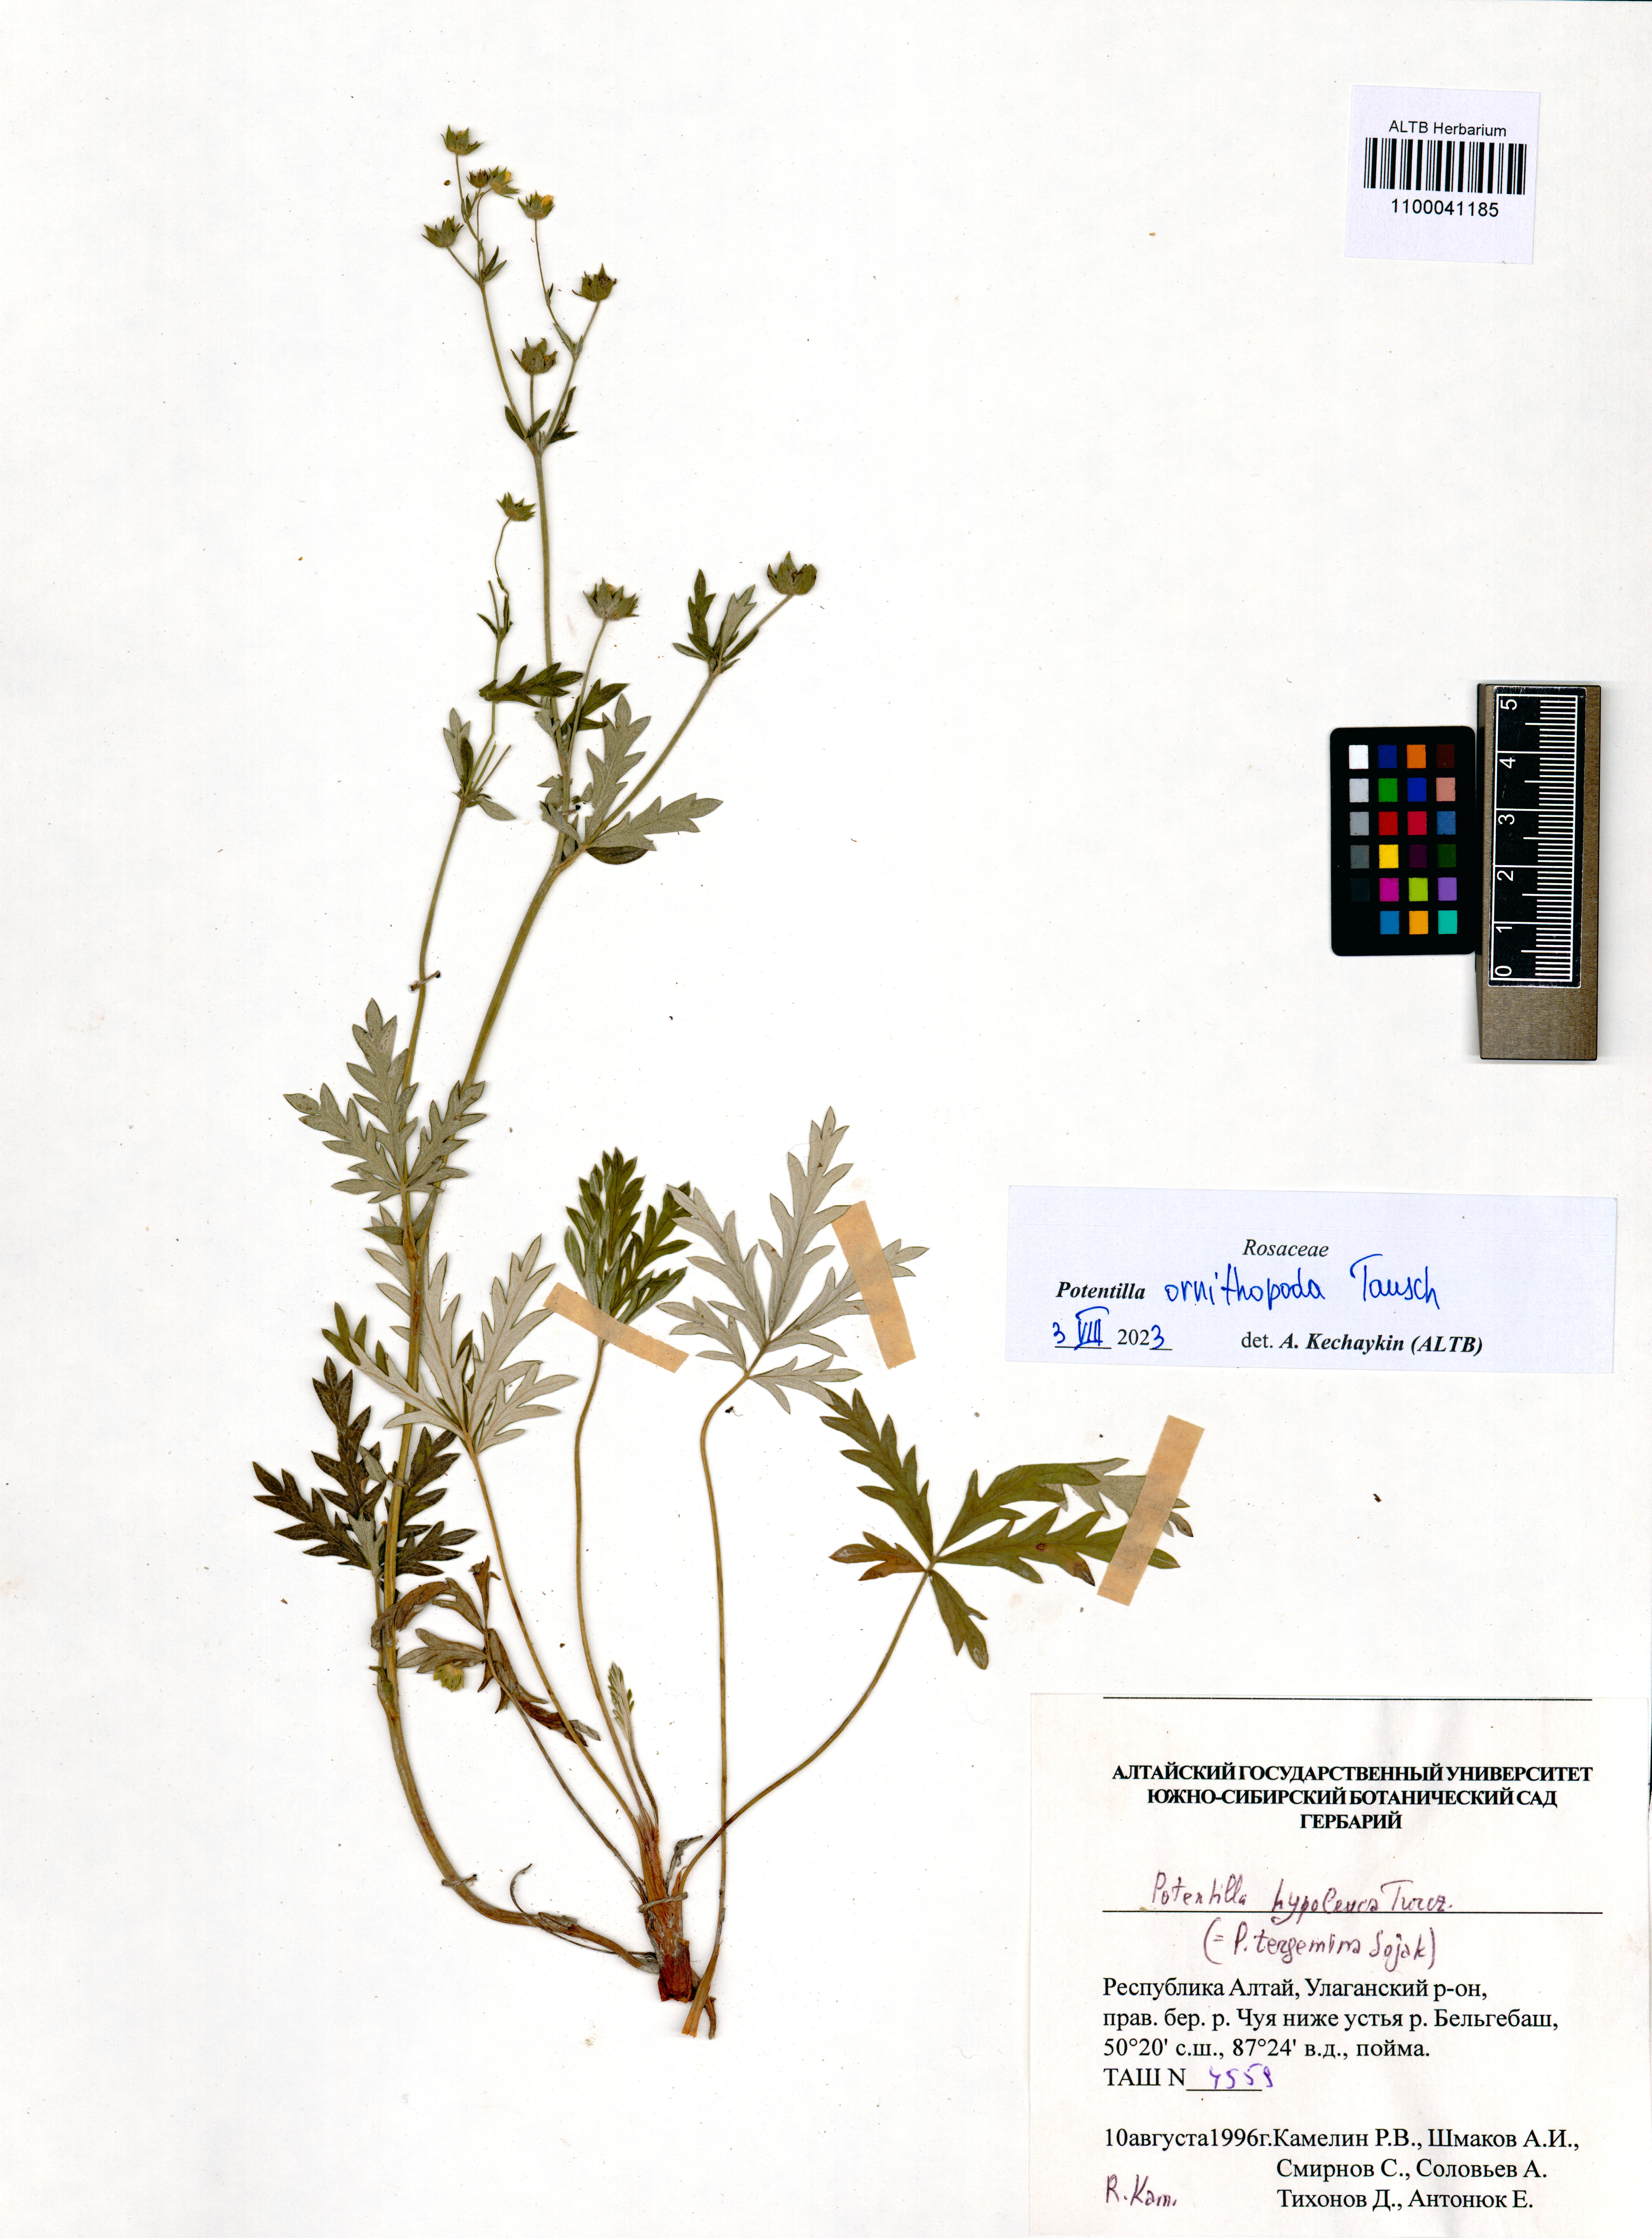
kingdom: Plantae
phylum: Tracheophyta
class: Magnoliopsida
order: Rosales
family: Rosaceae
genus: Potentilla
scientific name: Potentilla ornithopoda
